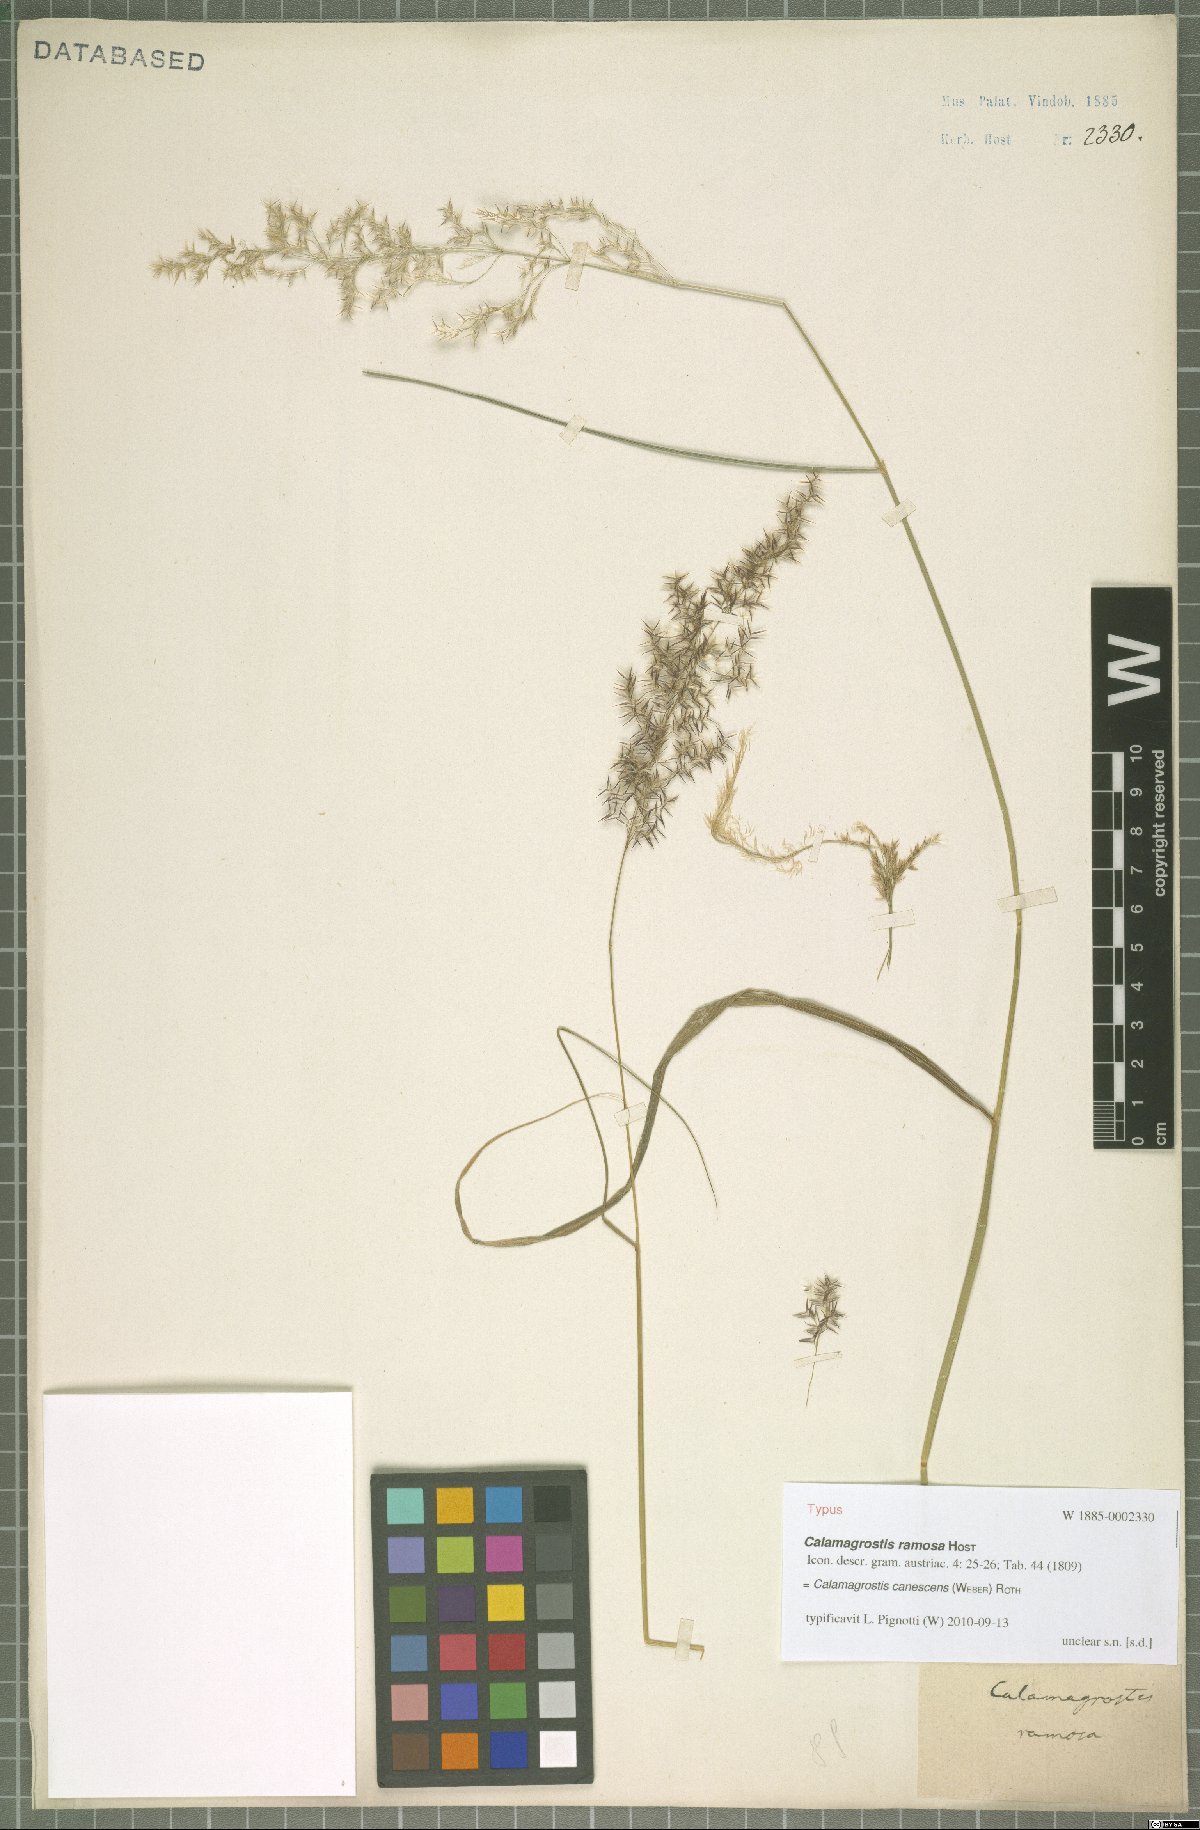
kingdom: Plantae
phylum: Tracheophyta
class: Liliopsida
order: Poales
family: Poaceae
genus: Calamagrostis
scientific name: Calamagrostis canescens
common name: Purple small-reed
